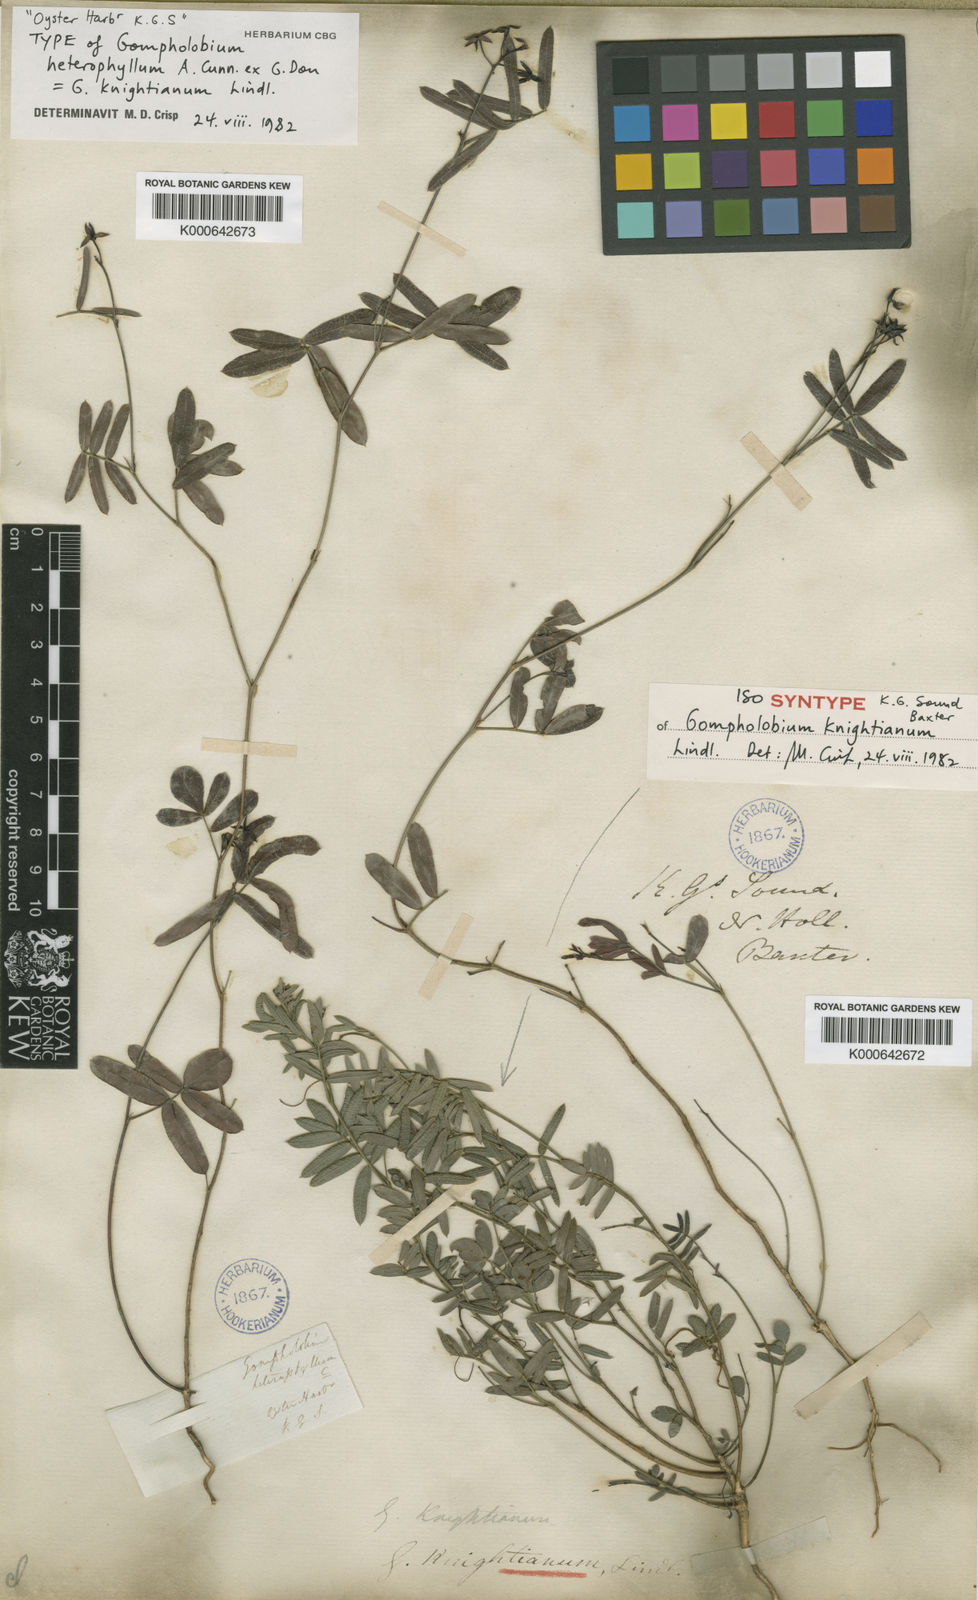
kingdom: Plantae
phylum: Tracheophyta
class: Magnoliopsida
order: Fabales
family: Fabaceae
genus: Gompholobium
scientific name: Gompholobium knightianum
